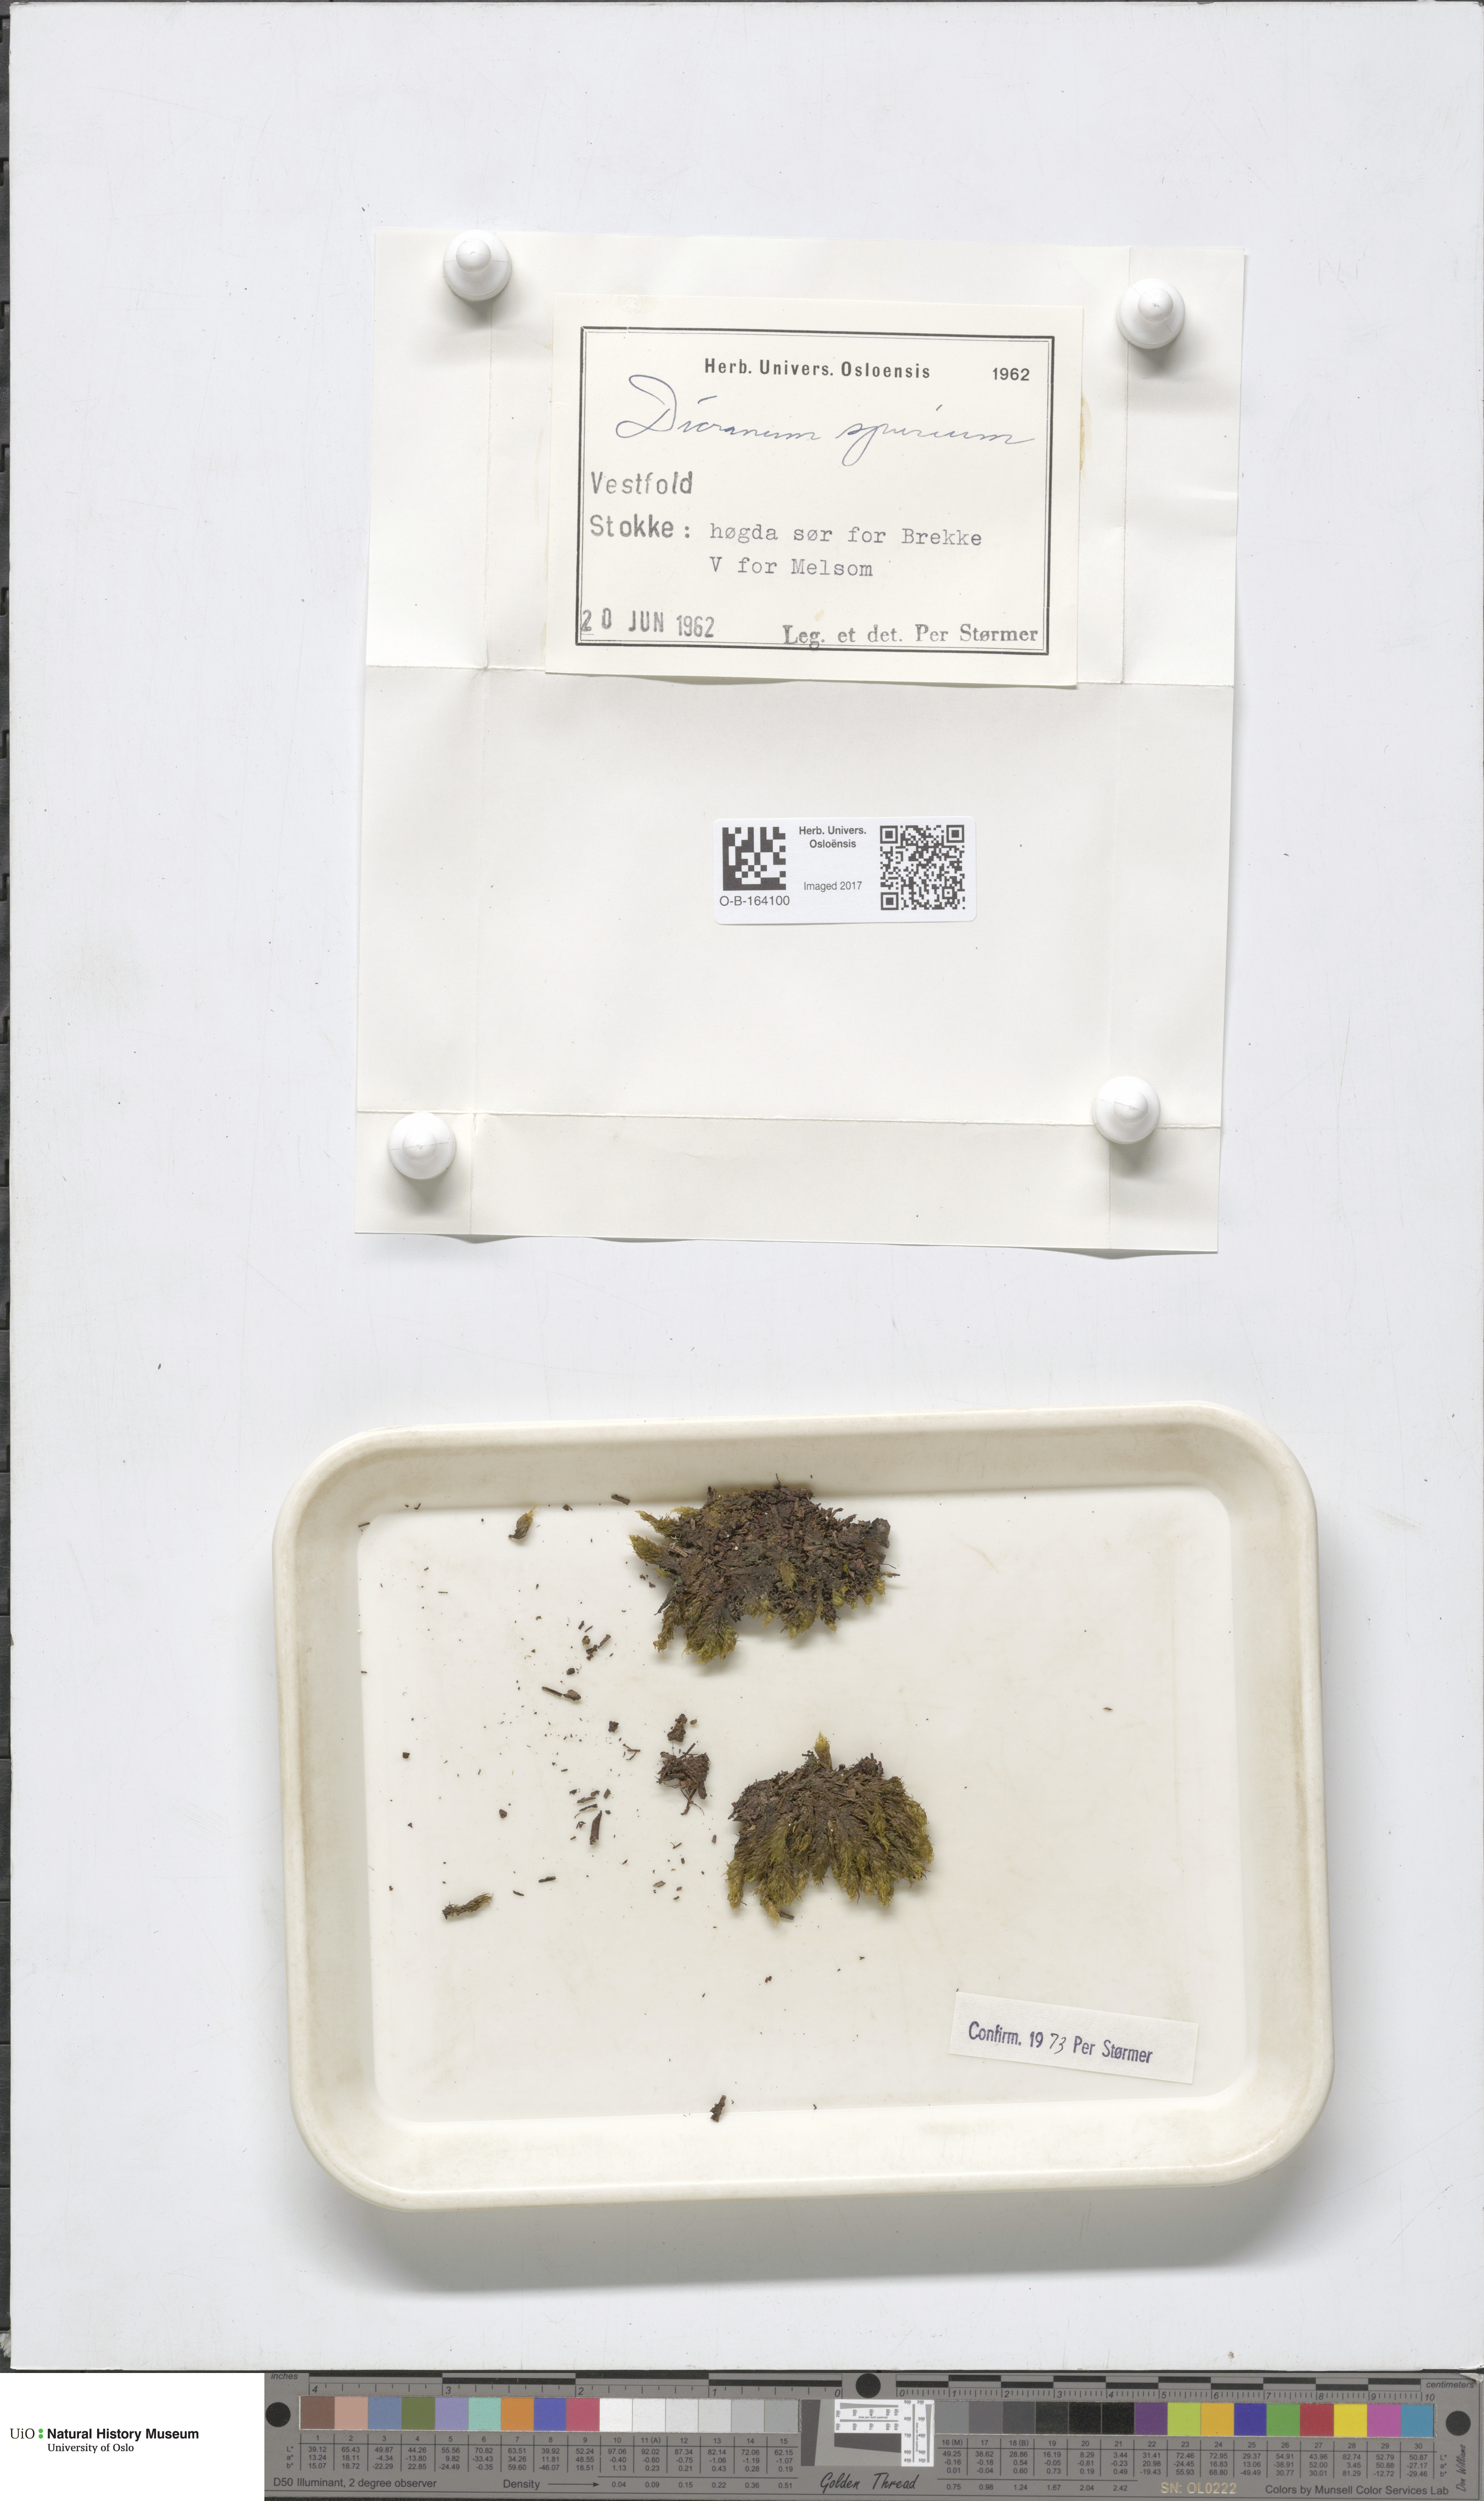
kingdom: Plantae
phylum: Bryophyta
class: Bryopsida
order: Dicranales
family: Dicranaceae
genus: Dicranum
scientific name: Dicranum spurium
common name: Spurred broom moss
